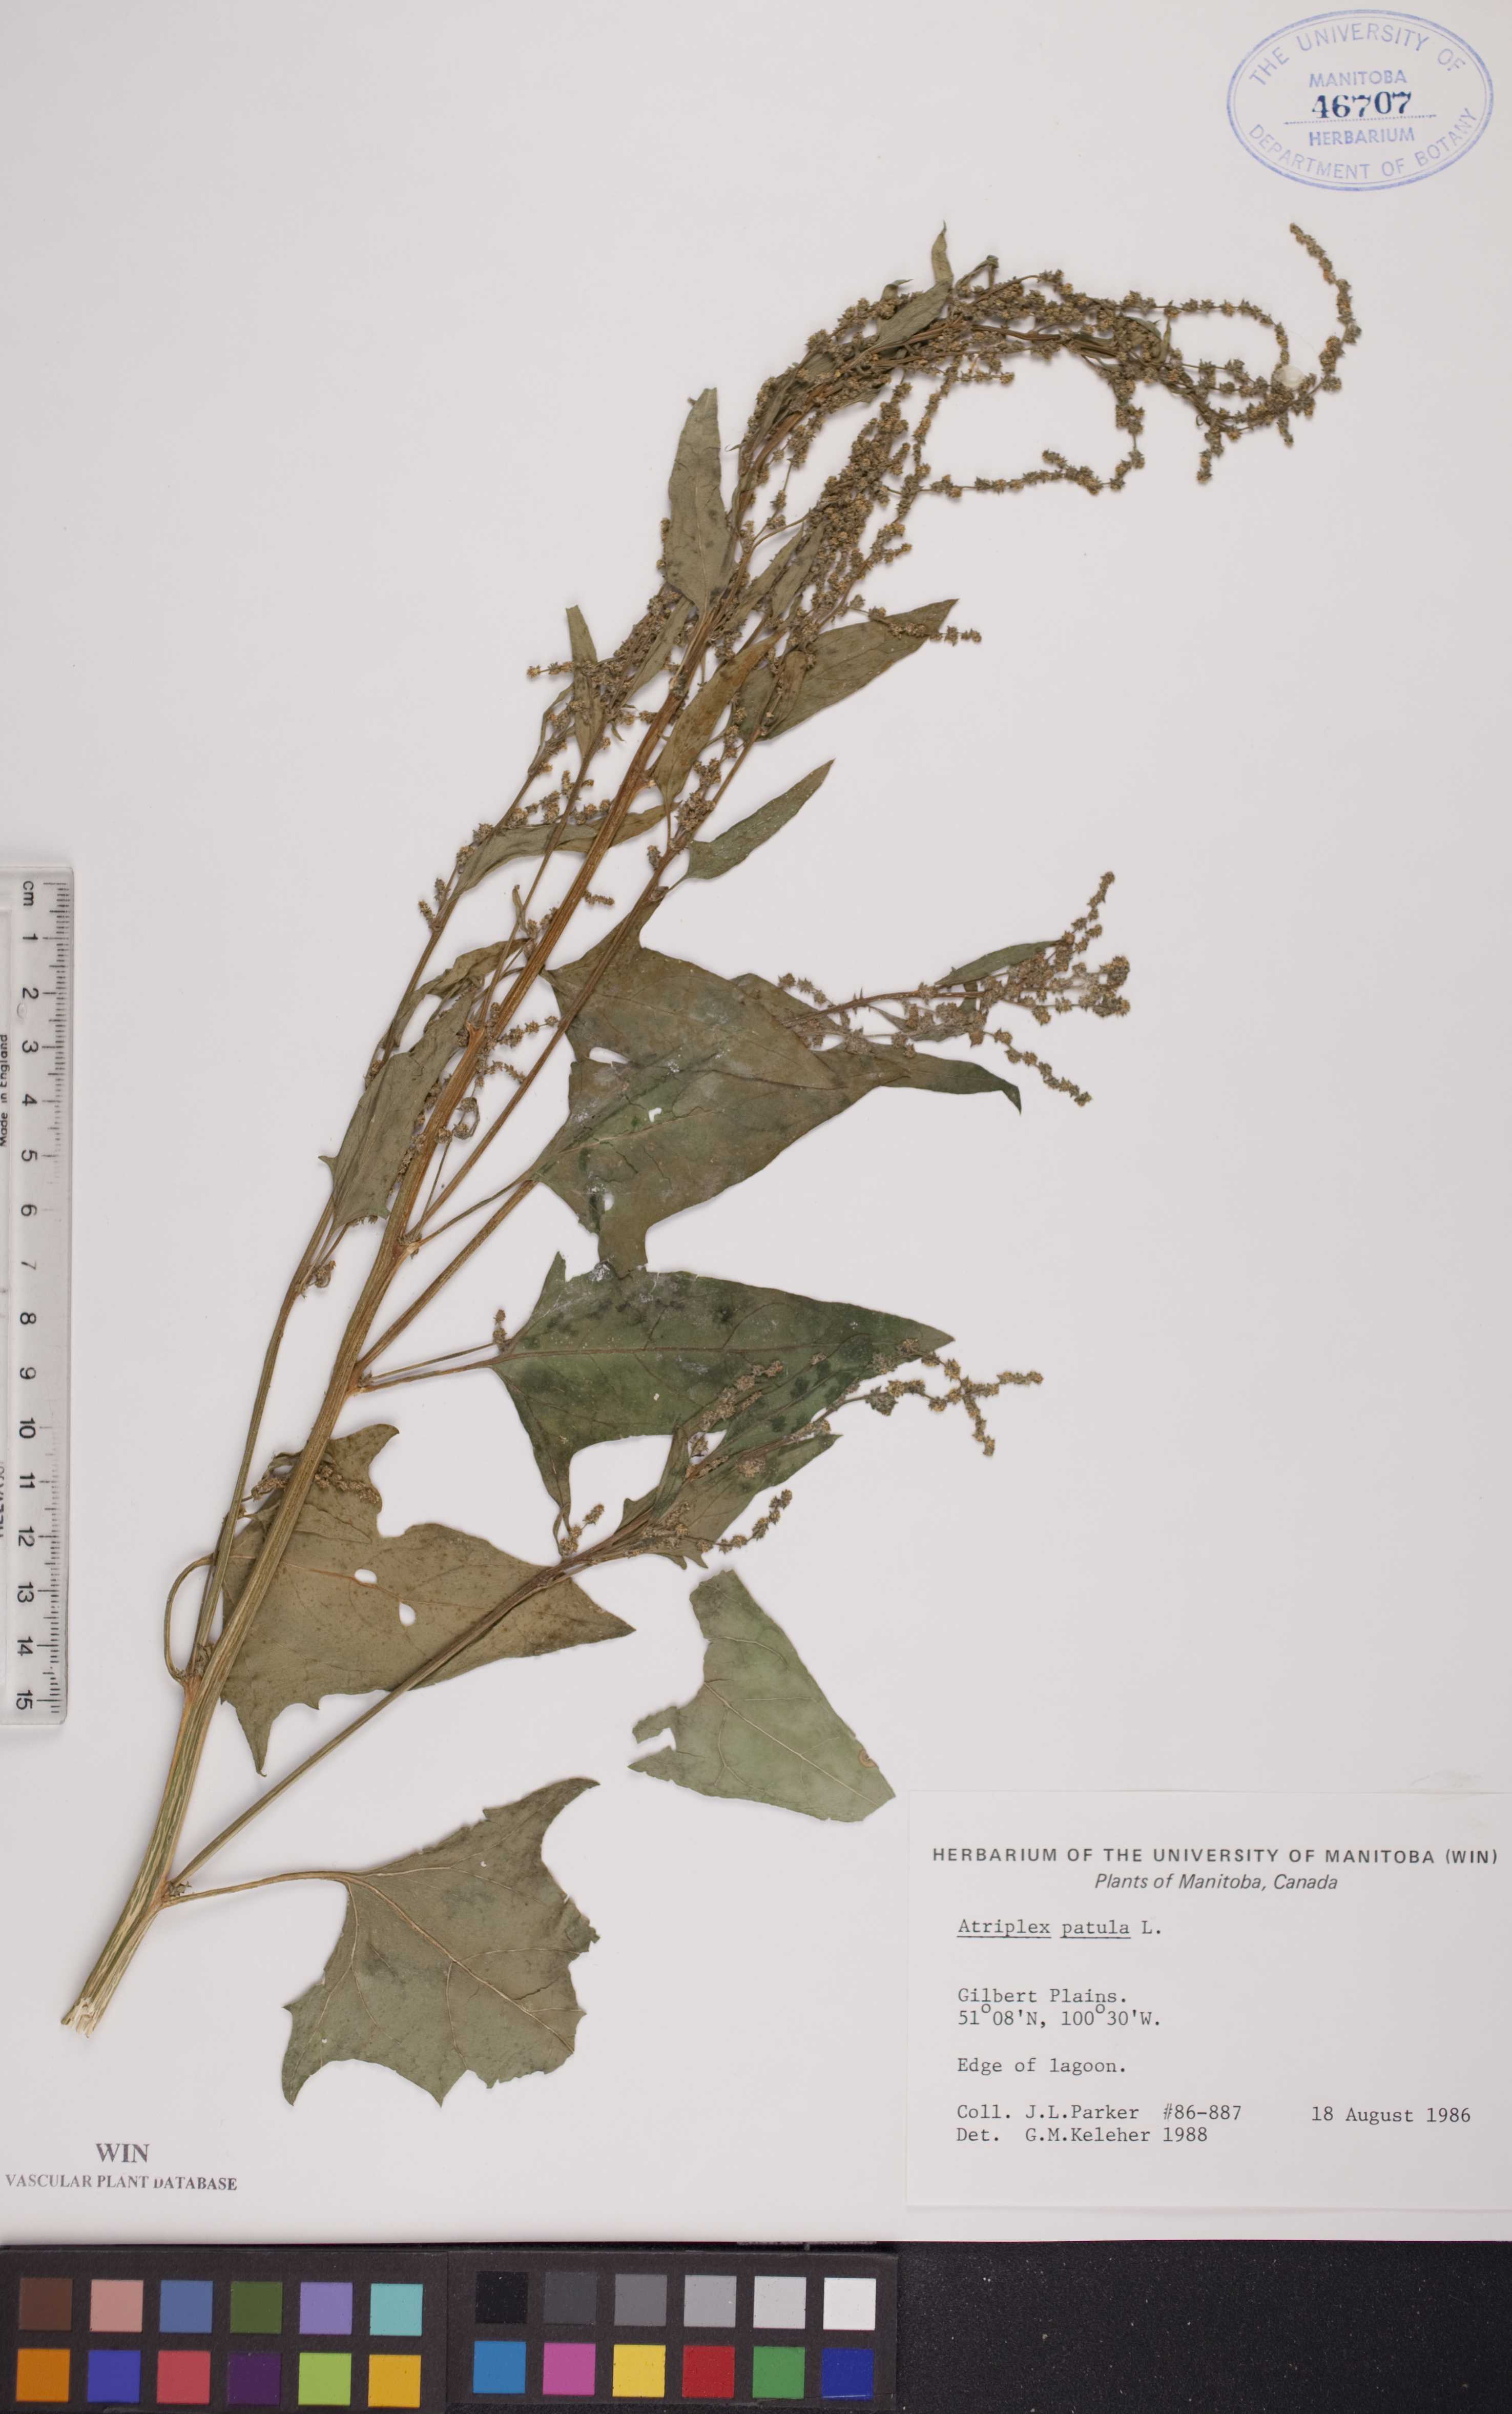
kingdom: Plantae
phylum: Tracheophyta
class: Magnoliopsida
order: Caryophyllales
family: Amaranthaceae
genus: Atriplex
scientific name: Atriplex patula
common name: Common orache
